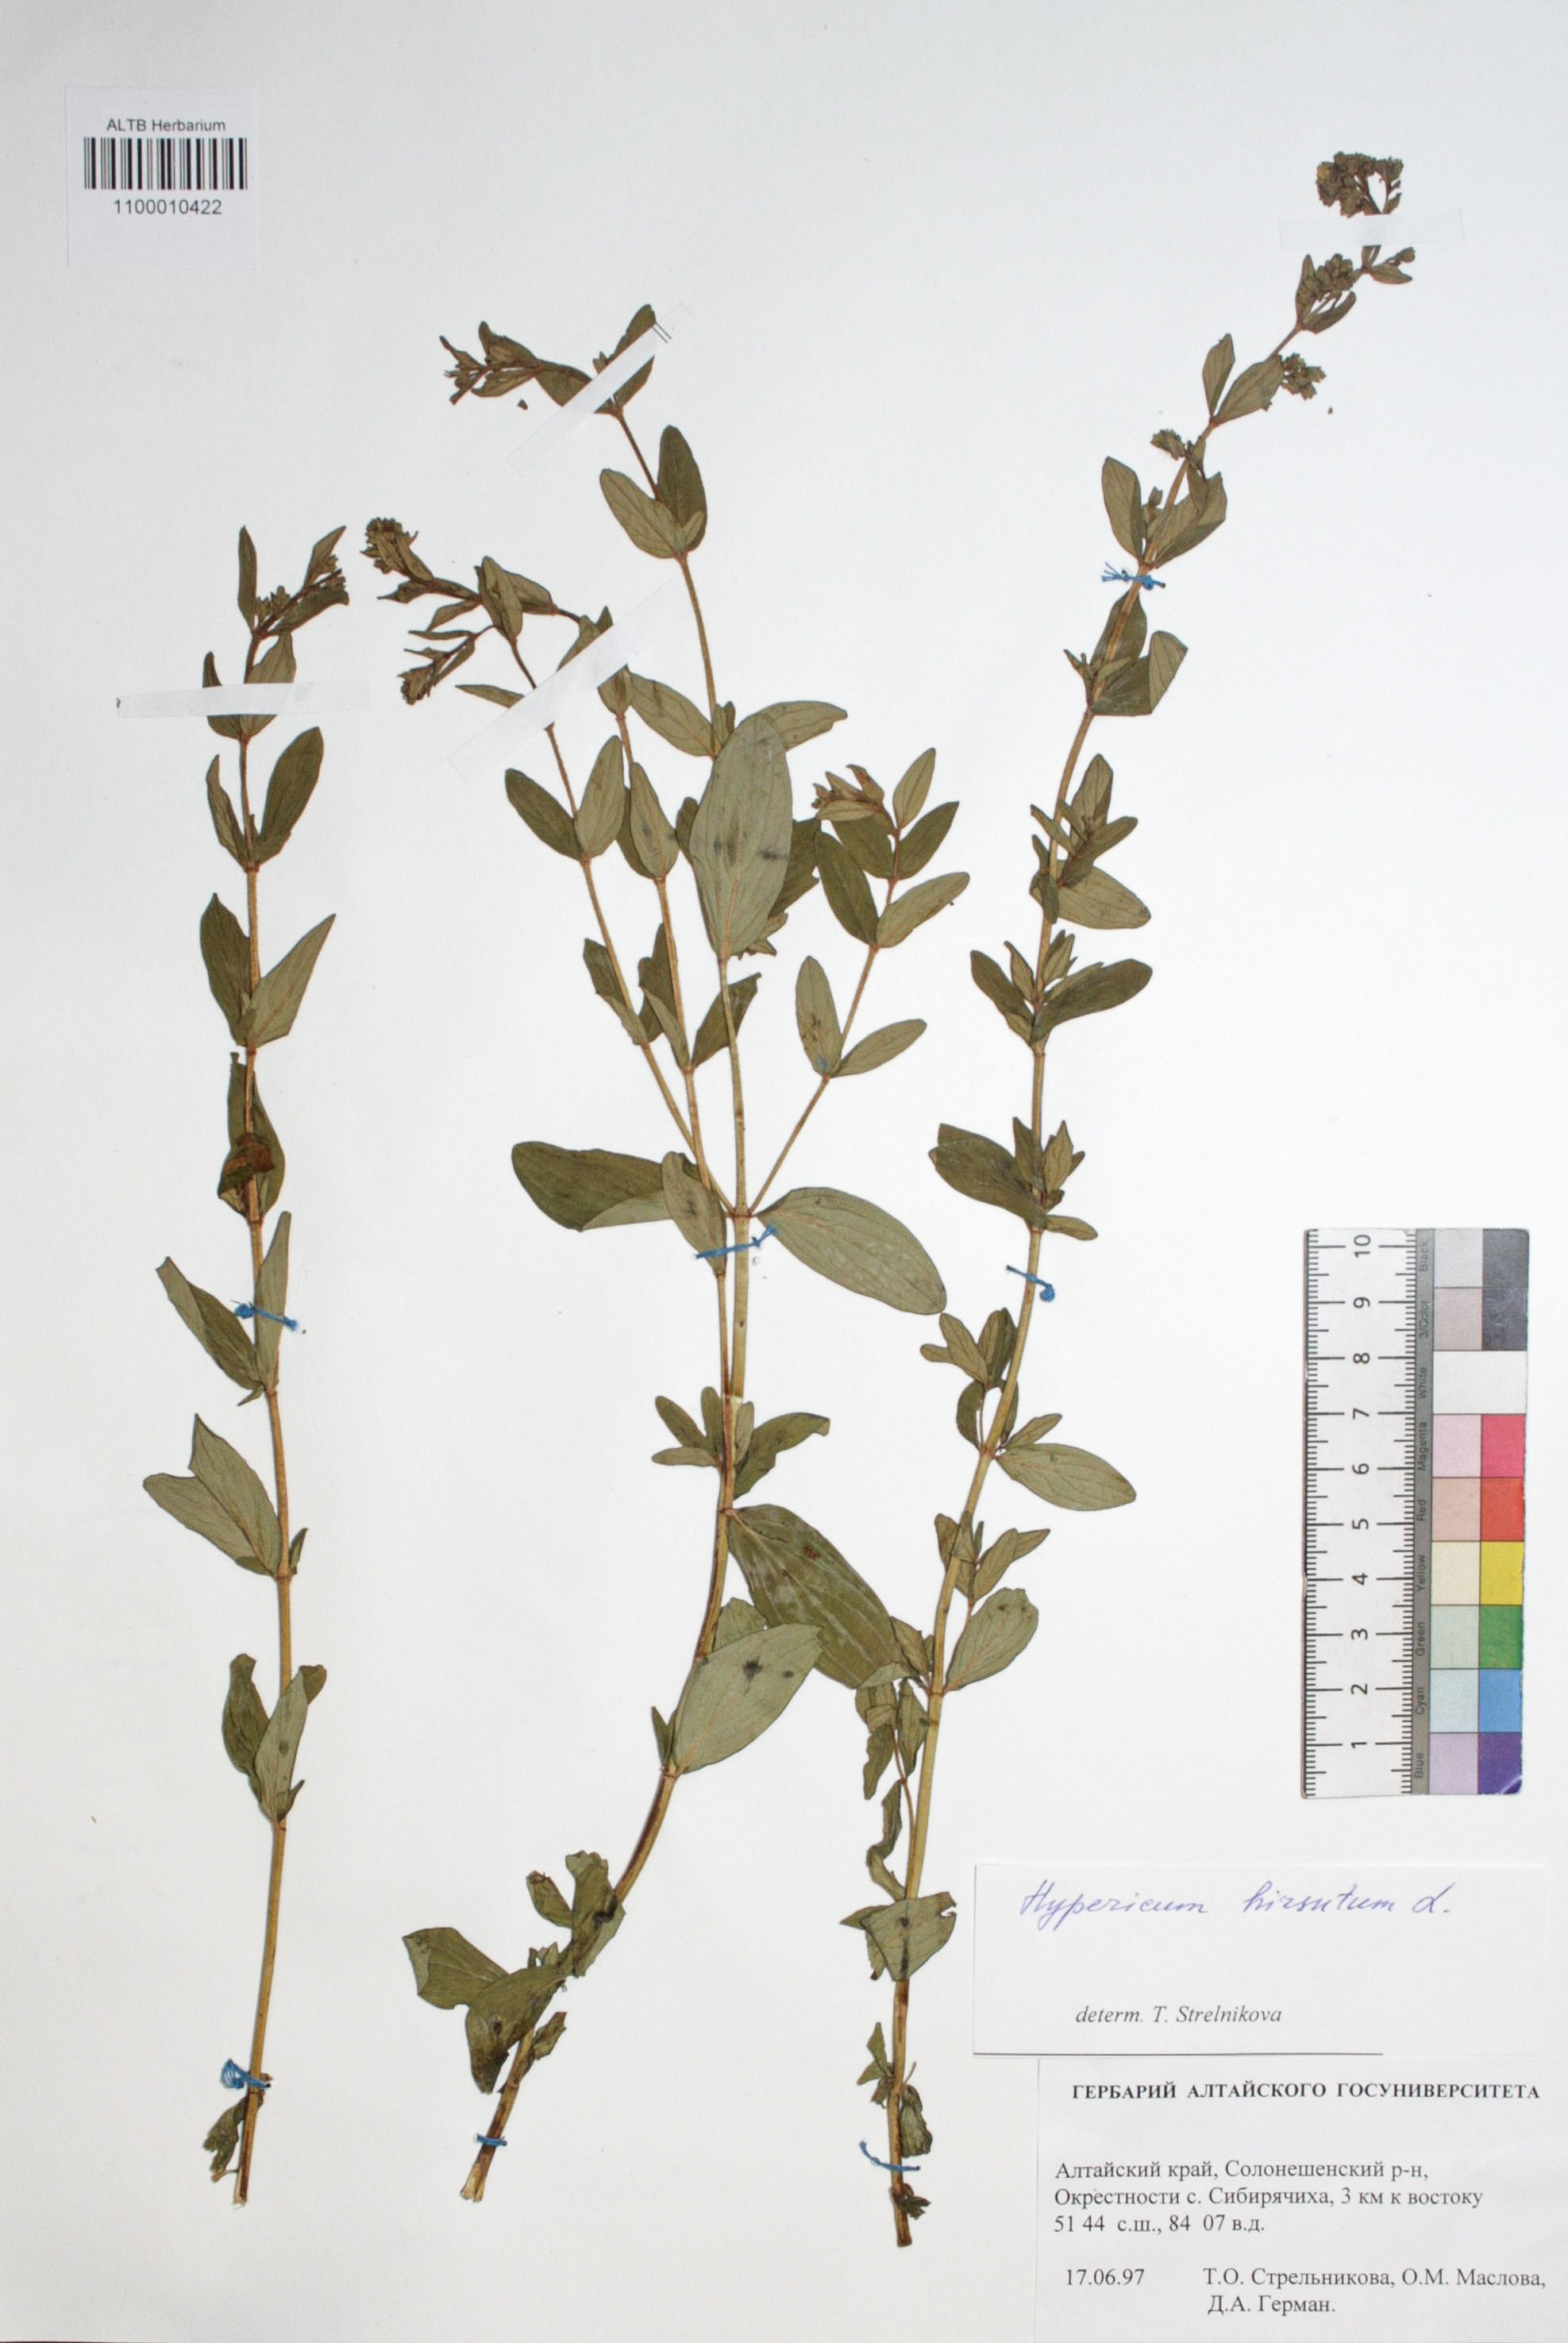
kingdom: Plantae
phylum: Tracheophyta
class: Magnoliopsida
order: Malpighiales
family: Hypericaceae
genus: Hypericum
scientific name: Hypericum hirsutum
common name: Hairy st. john's-wort
